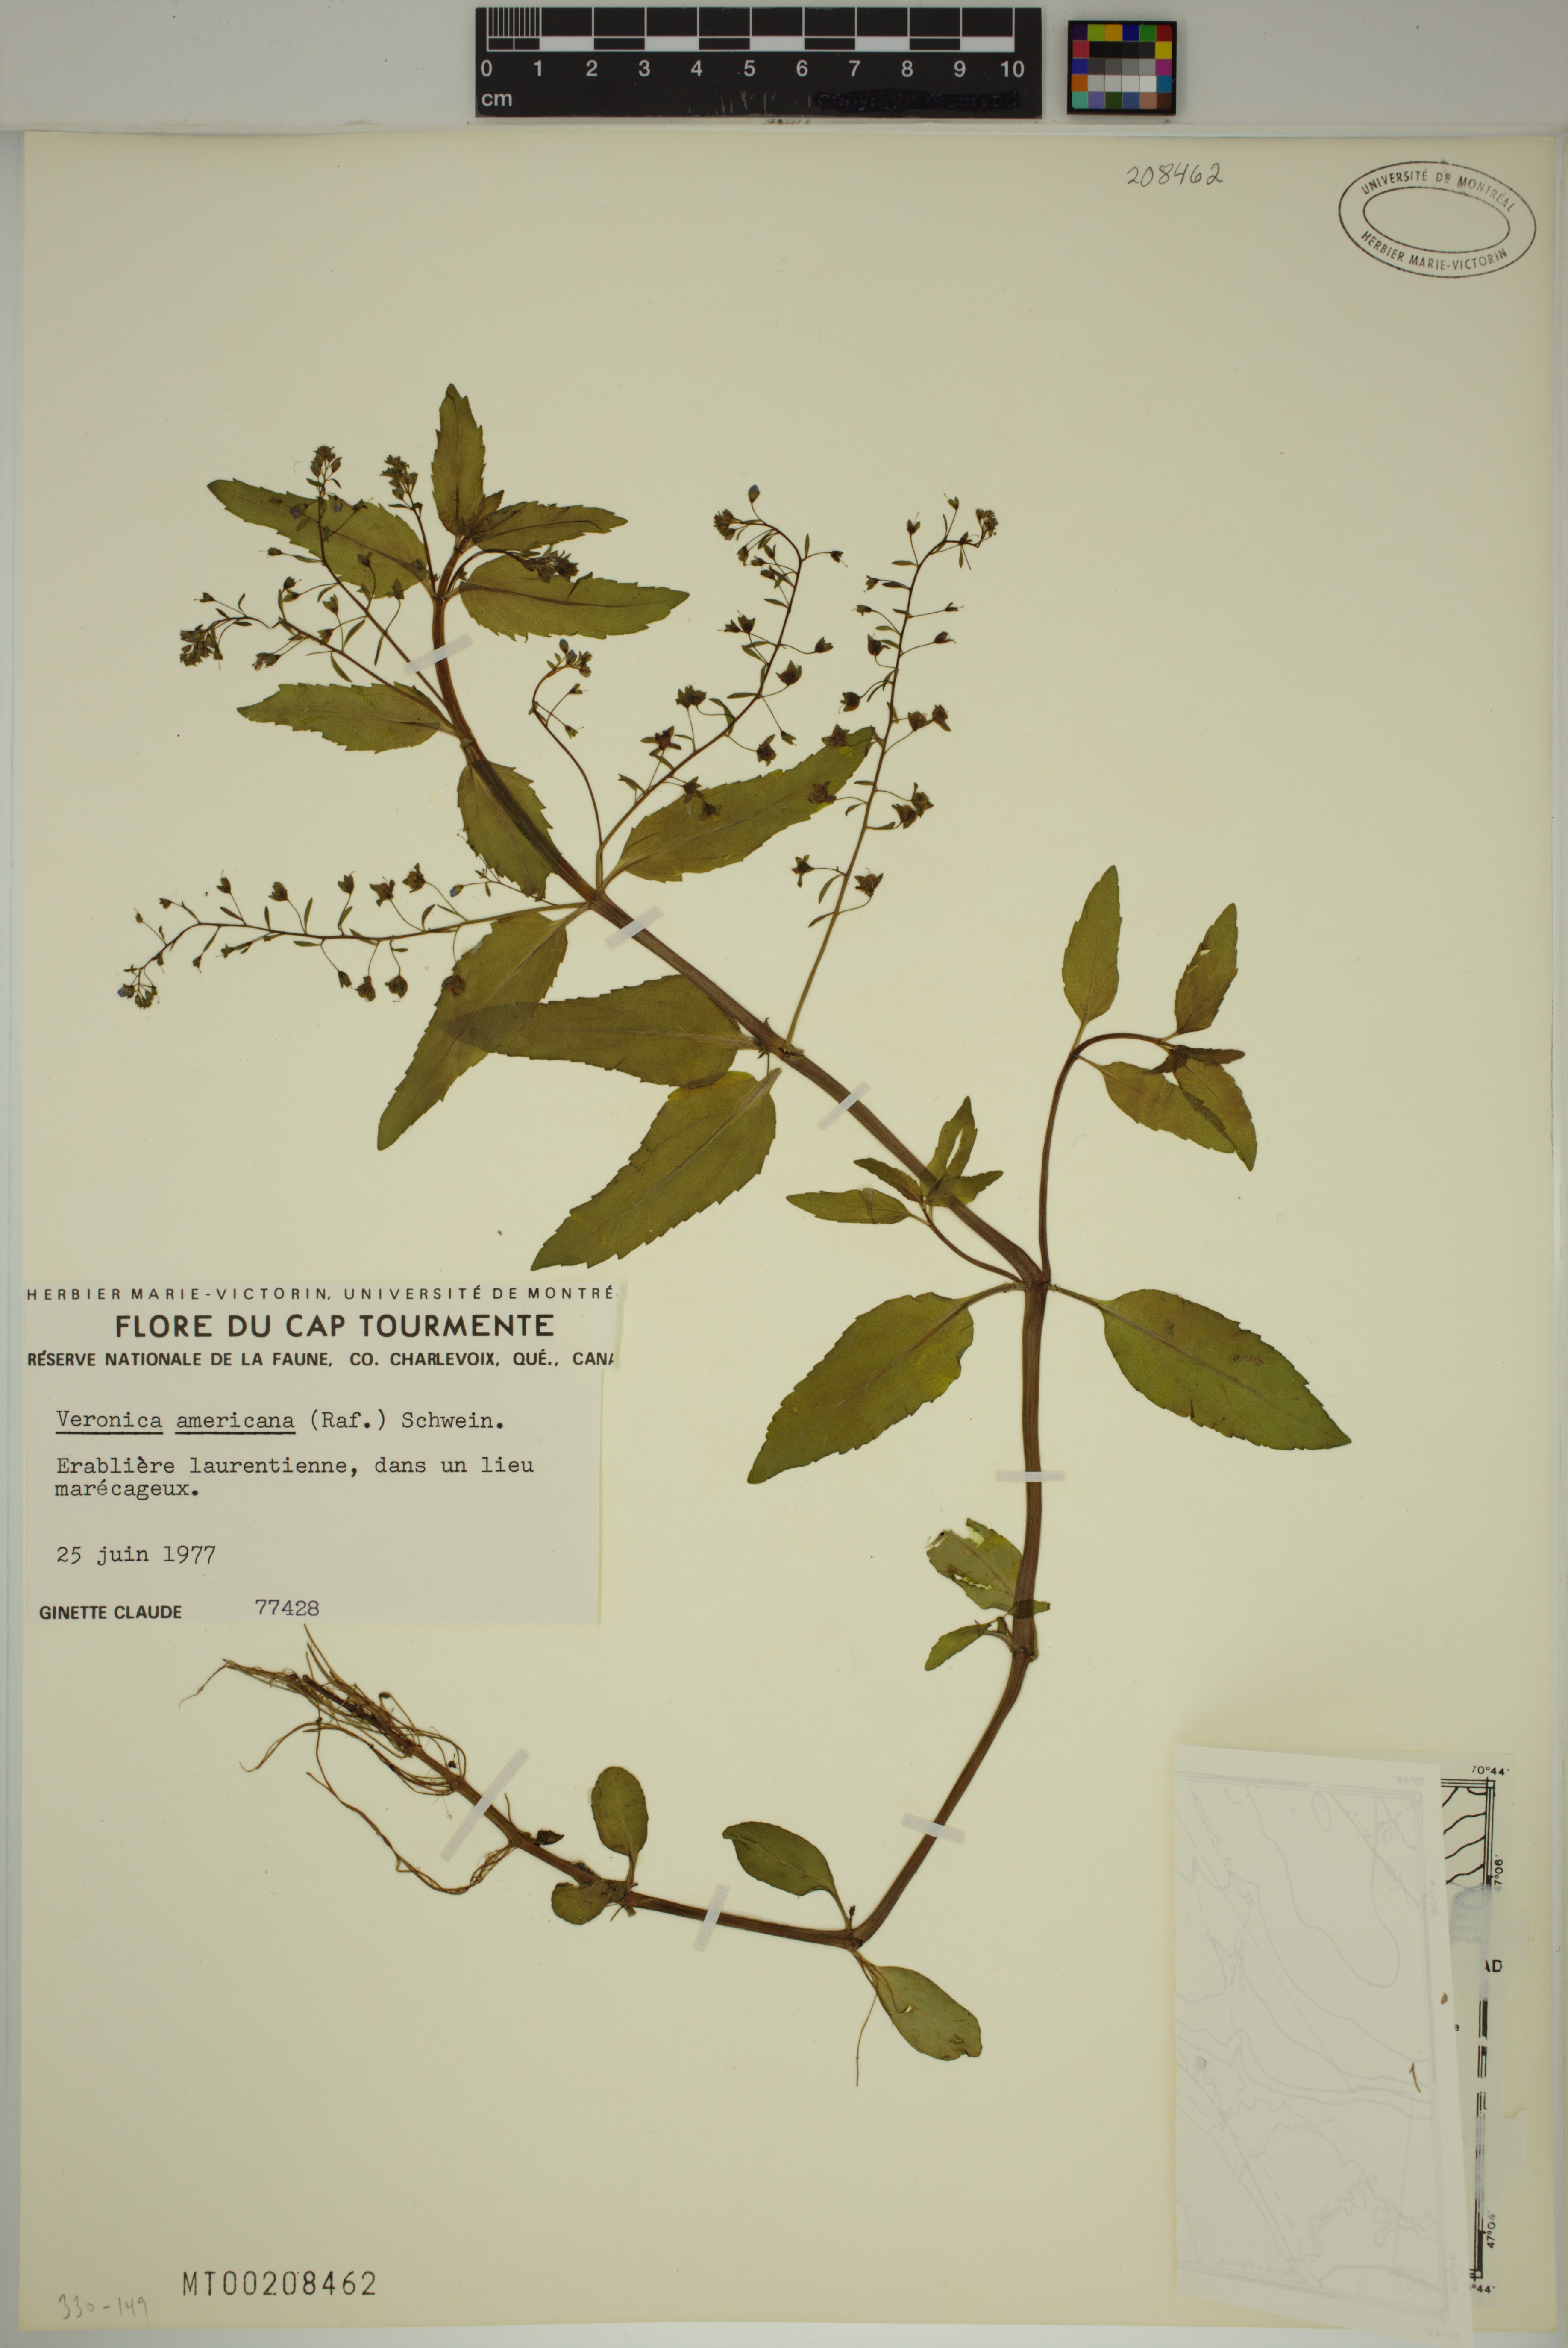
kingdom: Plantae
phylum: Tracheophyta
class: Magnoliopsida
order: Lamiales
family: Plantaginaceae
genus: Veronica
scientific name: Veronica americana
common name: American brooklime
